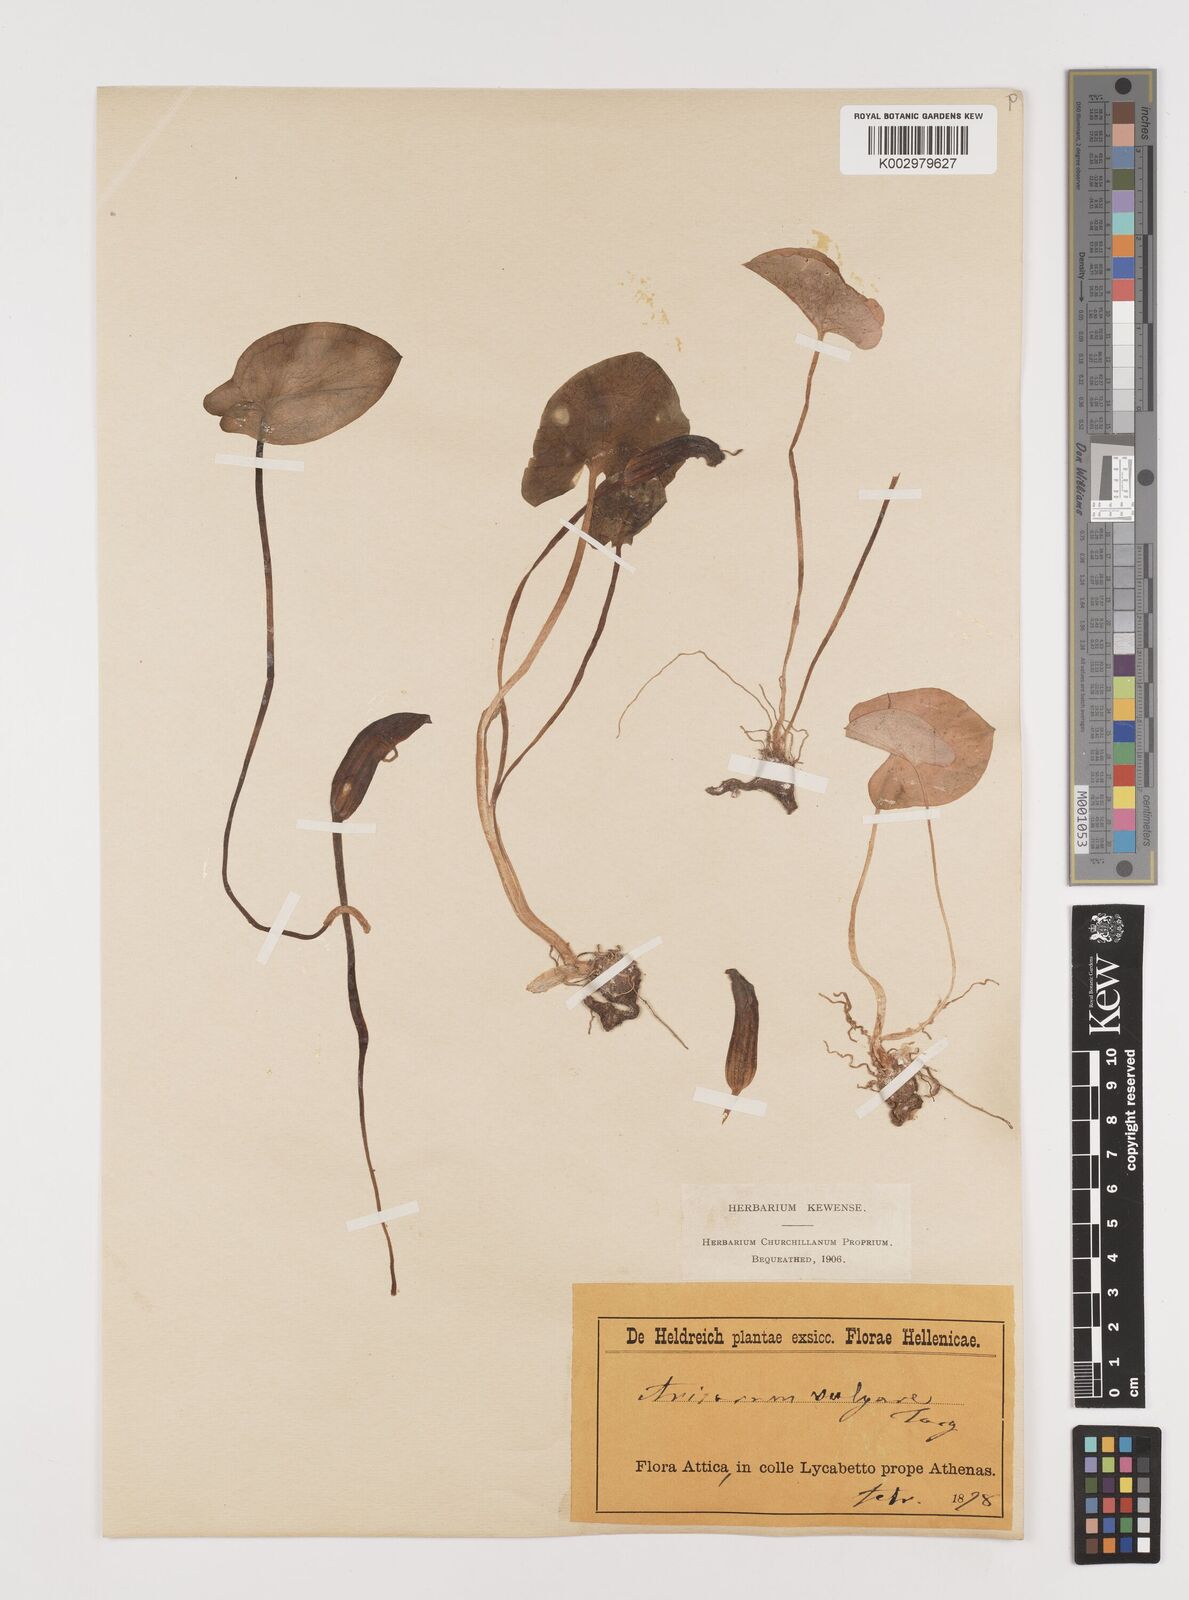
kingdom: Plantae
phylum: Tracheophyta
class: Liliopsida
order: Alismatales
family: Araceae
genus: Arisarum
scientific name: Arisarum vulgare
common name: Common arisarum
